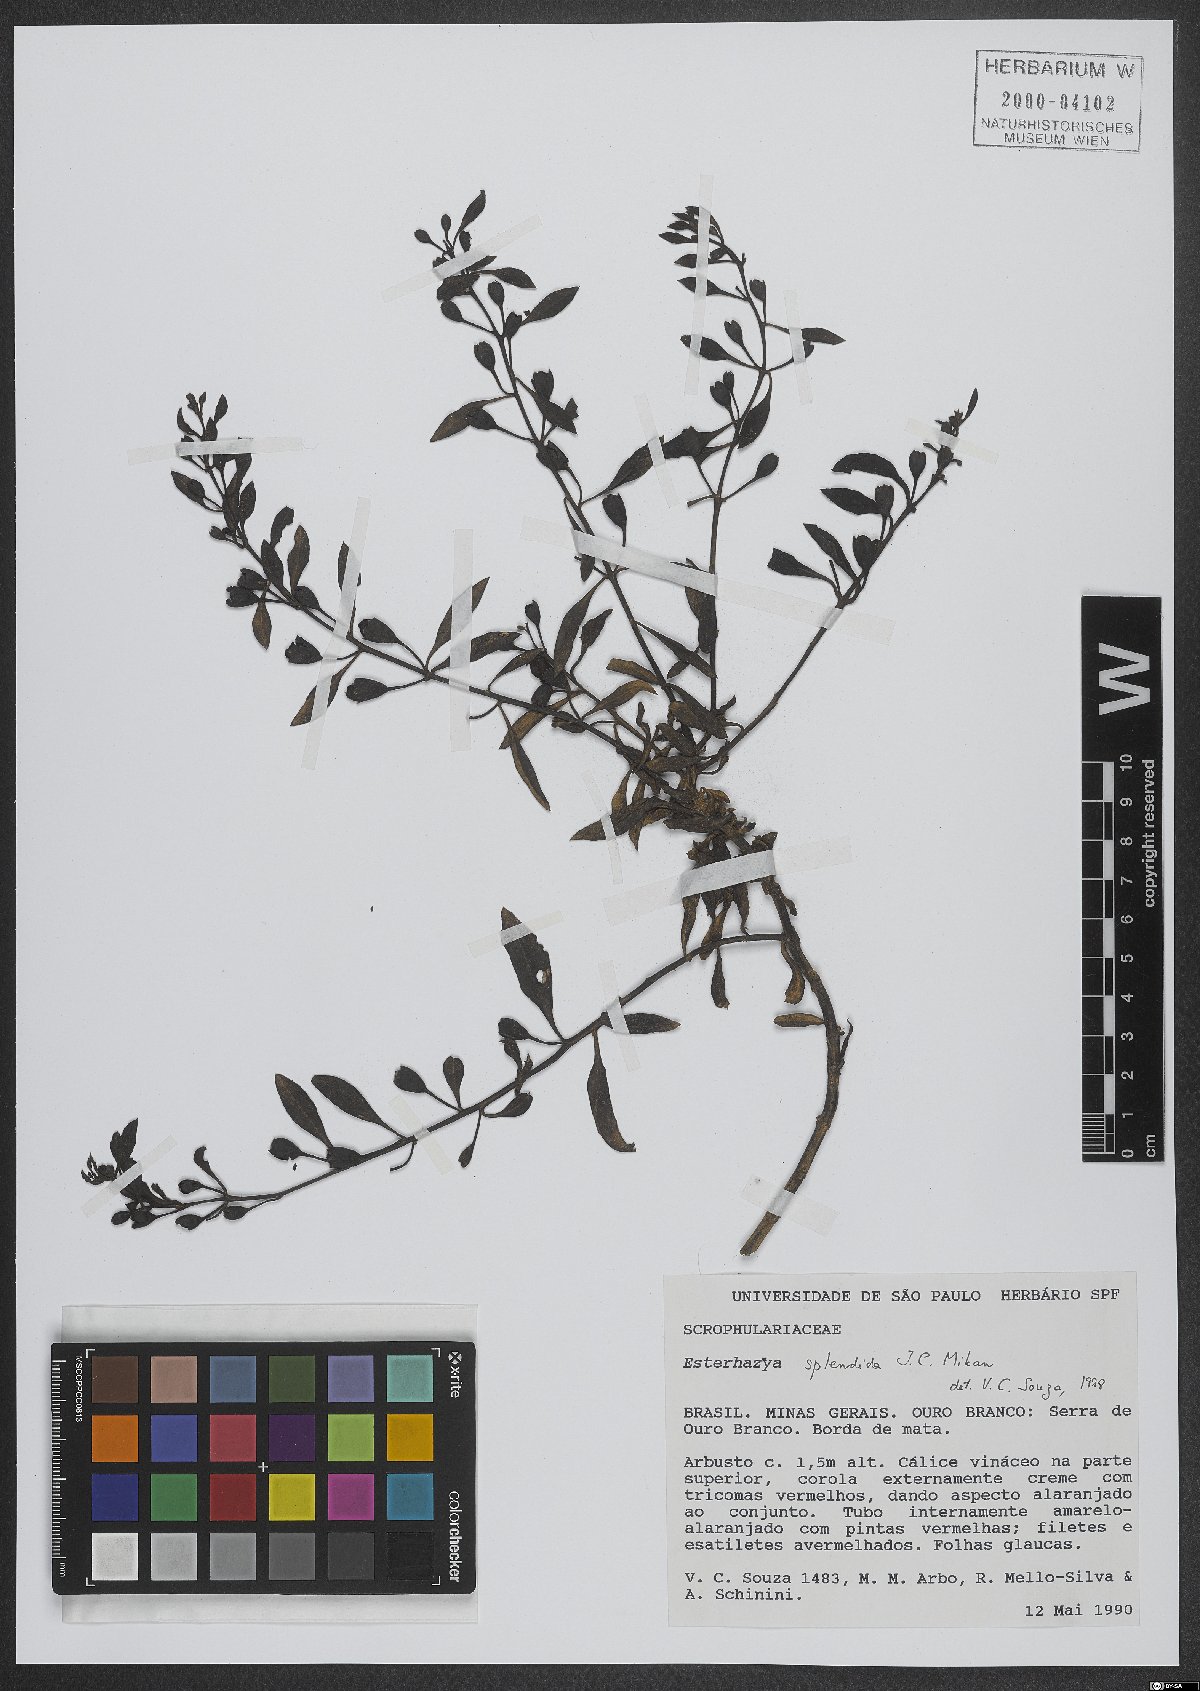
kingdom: Plantae
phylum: Tracheophyta
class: Magnoliopsida
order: Lamiales
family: Orobanchaceae
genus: Esterhazya
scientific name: Esterhazya splendida
